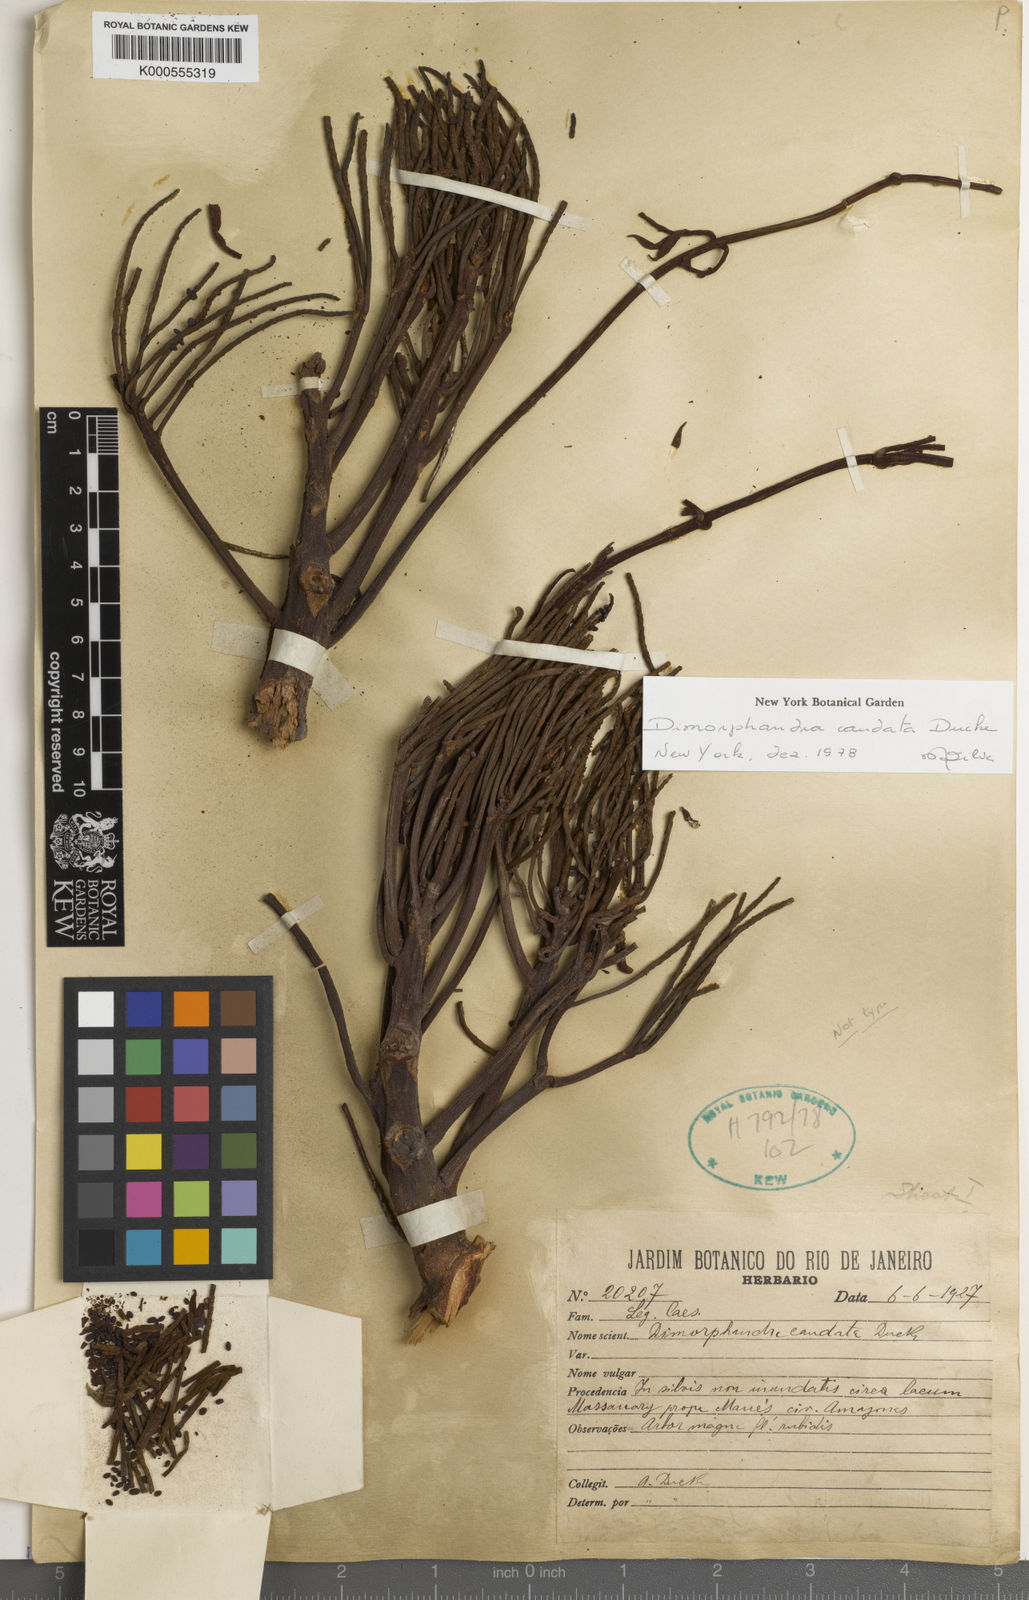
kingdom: Plantae
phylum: Tracheophyta
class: Magnoliopsida
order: Fabales
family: Fabaceae
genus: Dimorphandra
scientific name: Dimorphandra caudata
